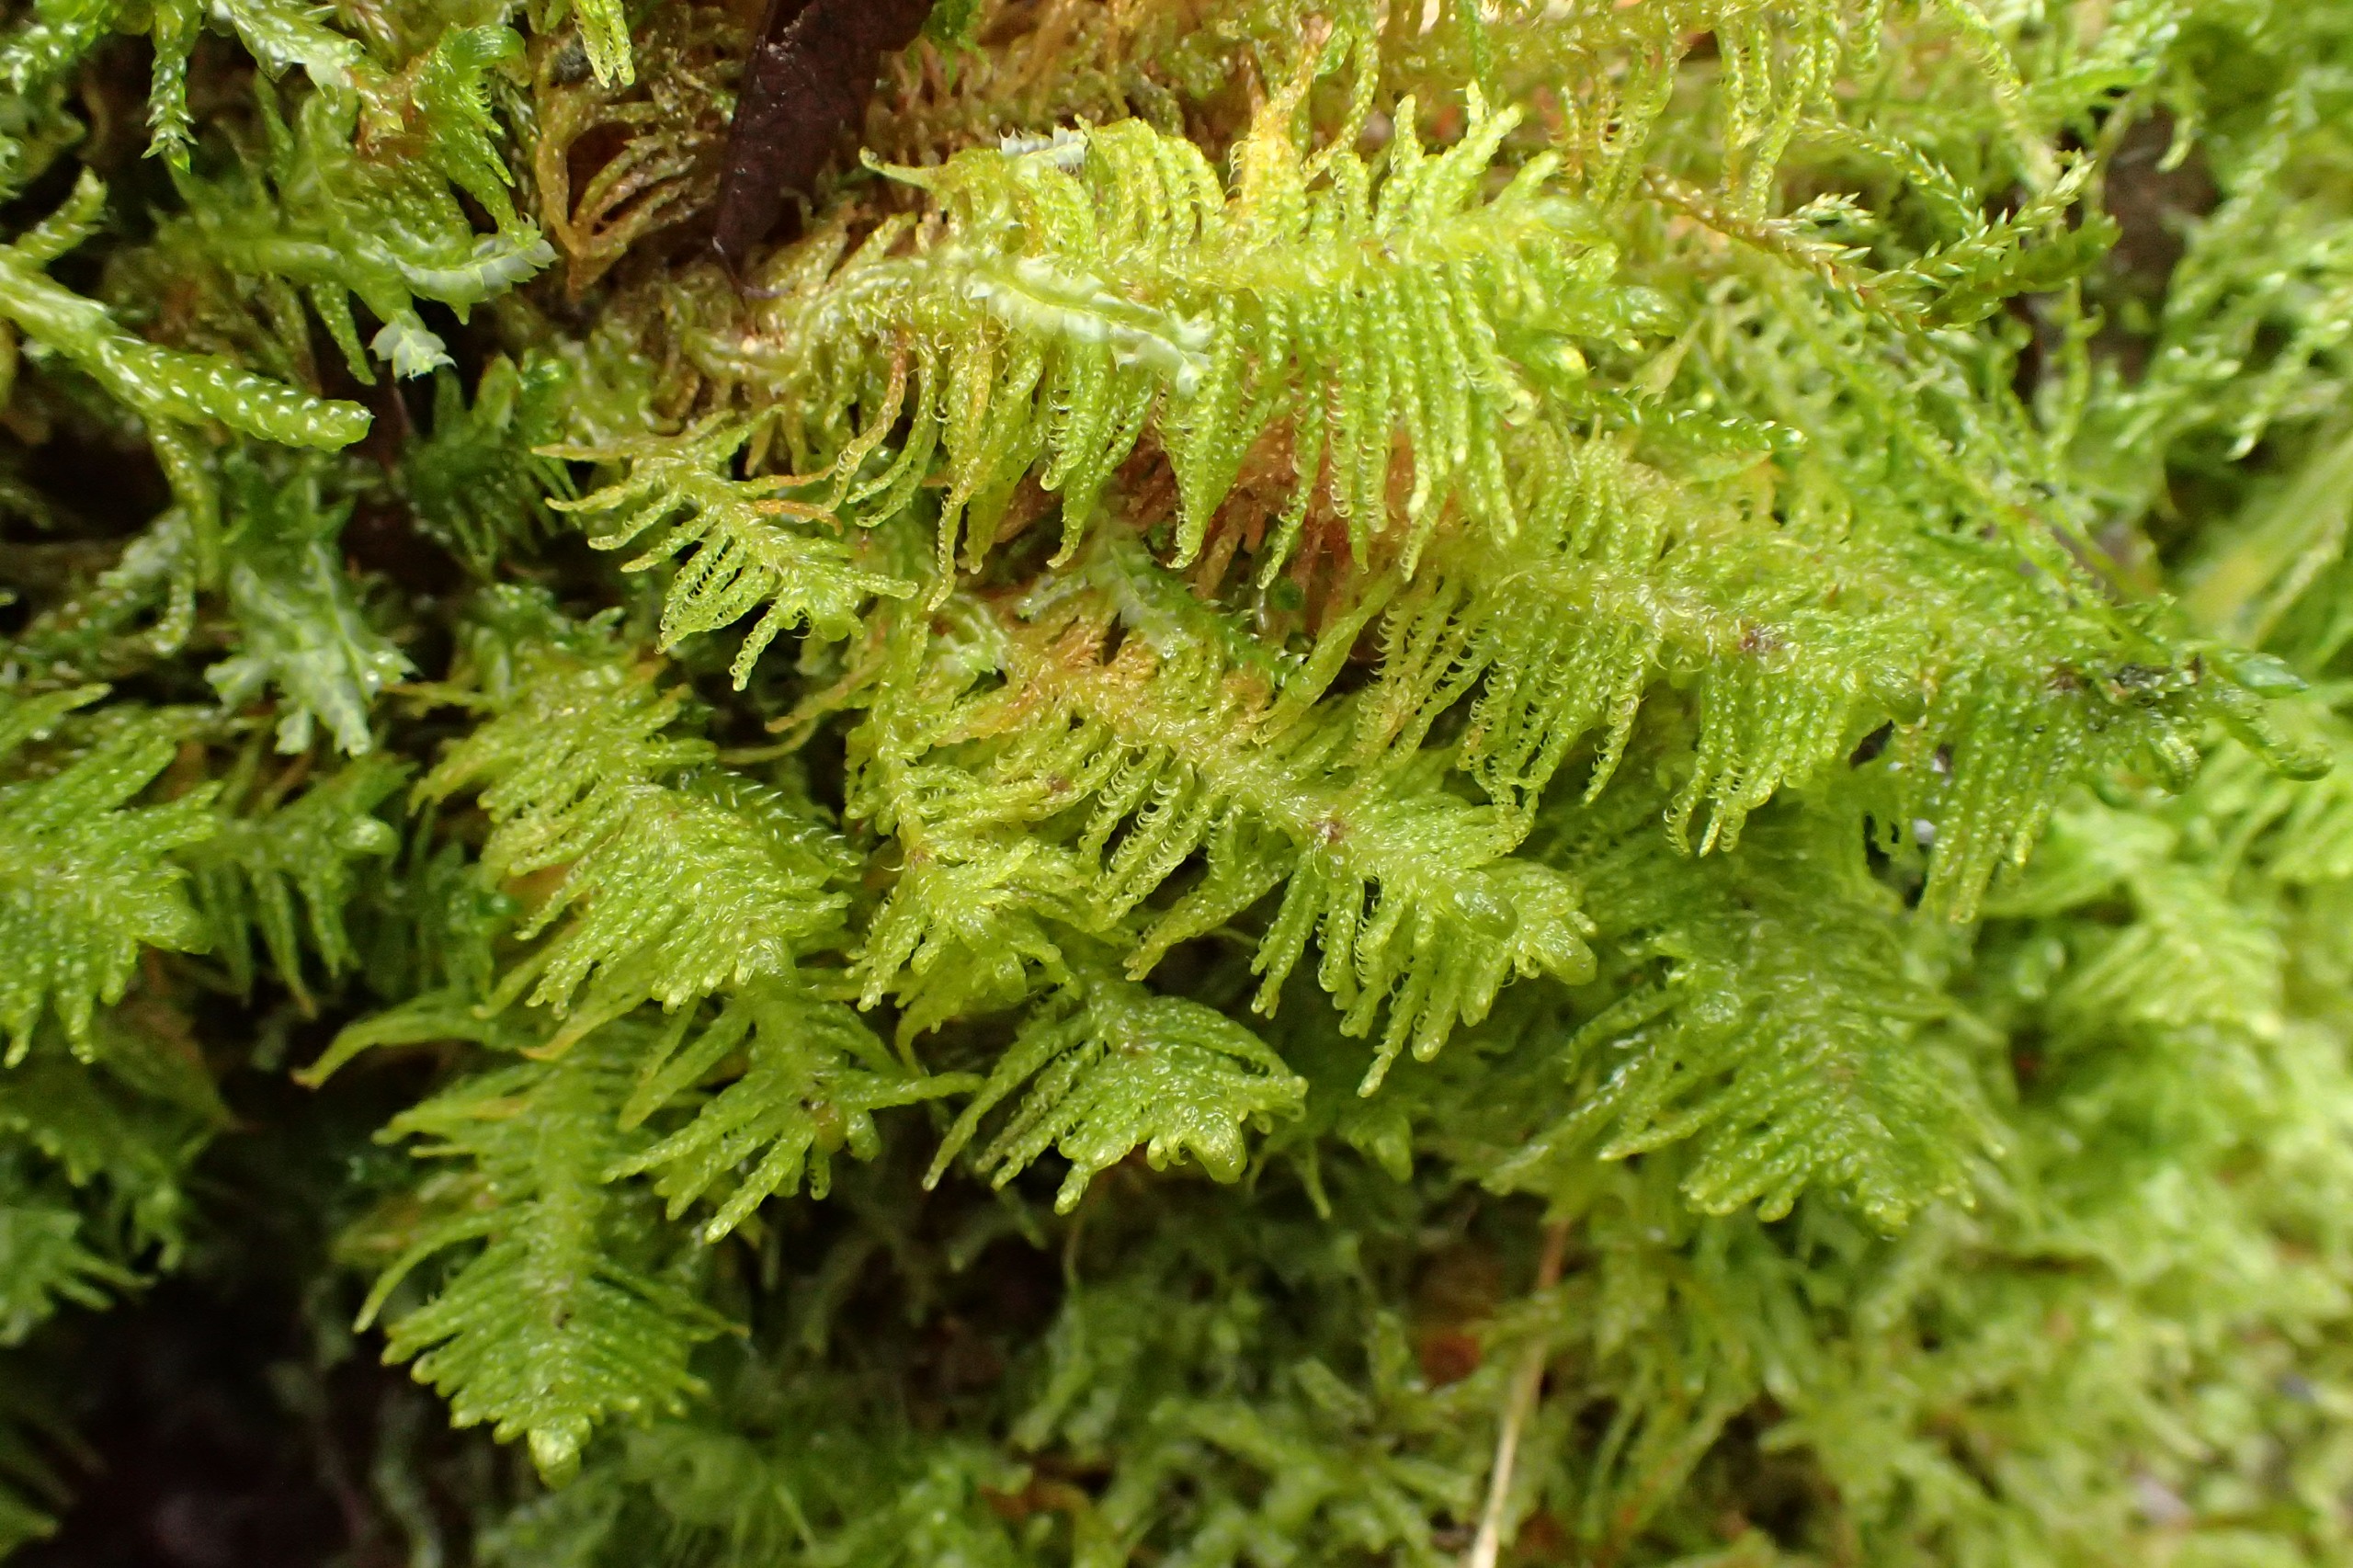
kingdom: Plantae
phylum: Bryophyta
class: Bryopsida
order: Hypnales
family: Pylaisiaceae
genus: Ptilium
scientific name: Ptilium crista-castrensis
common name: Fjer-kammos
